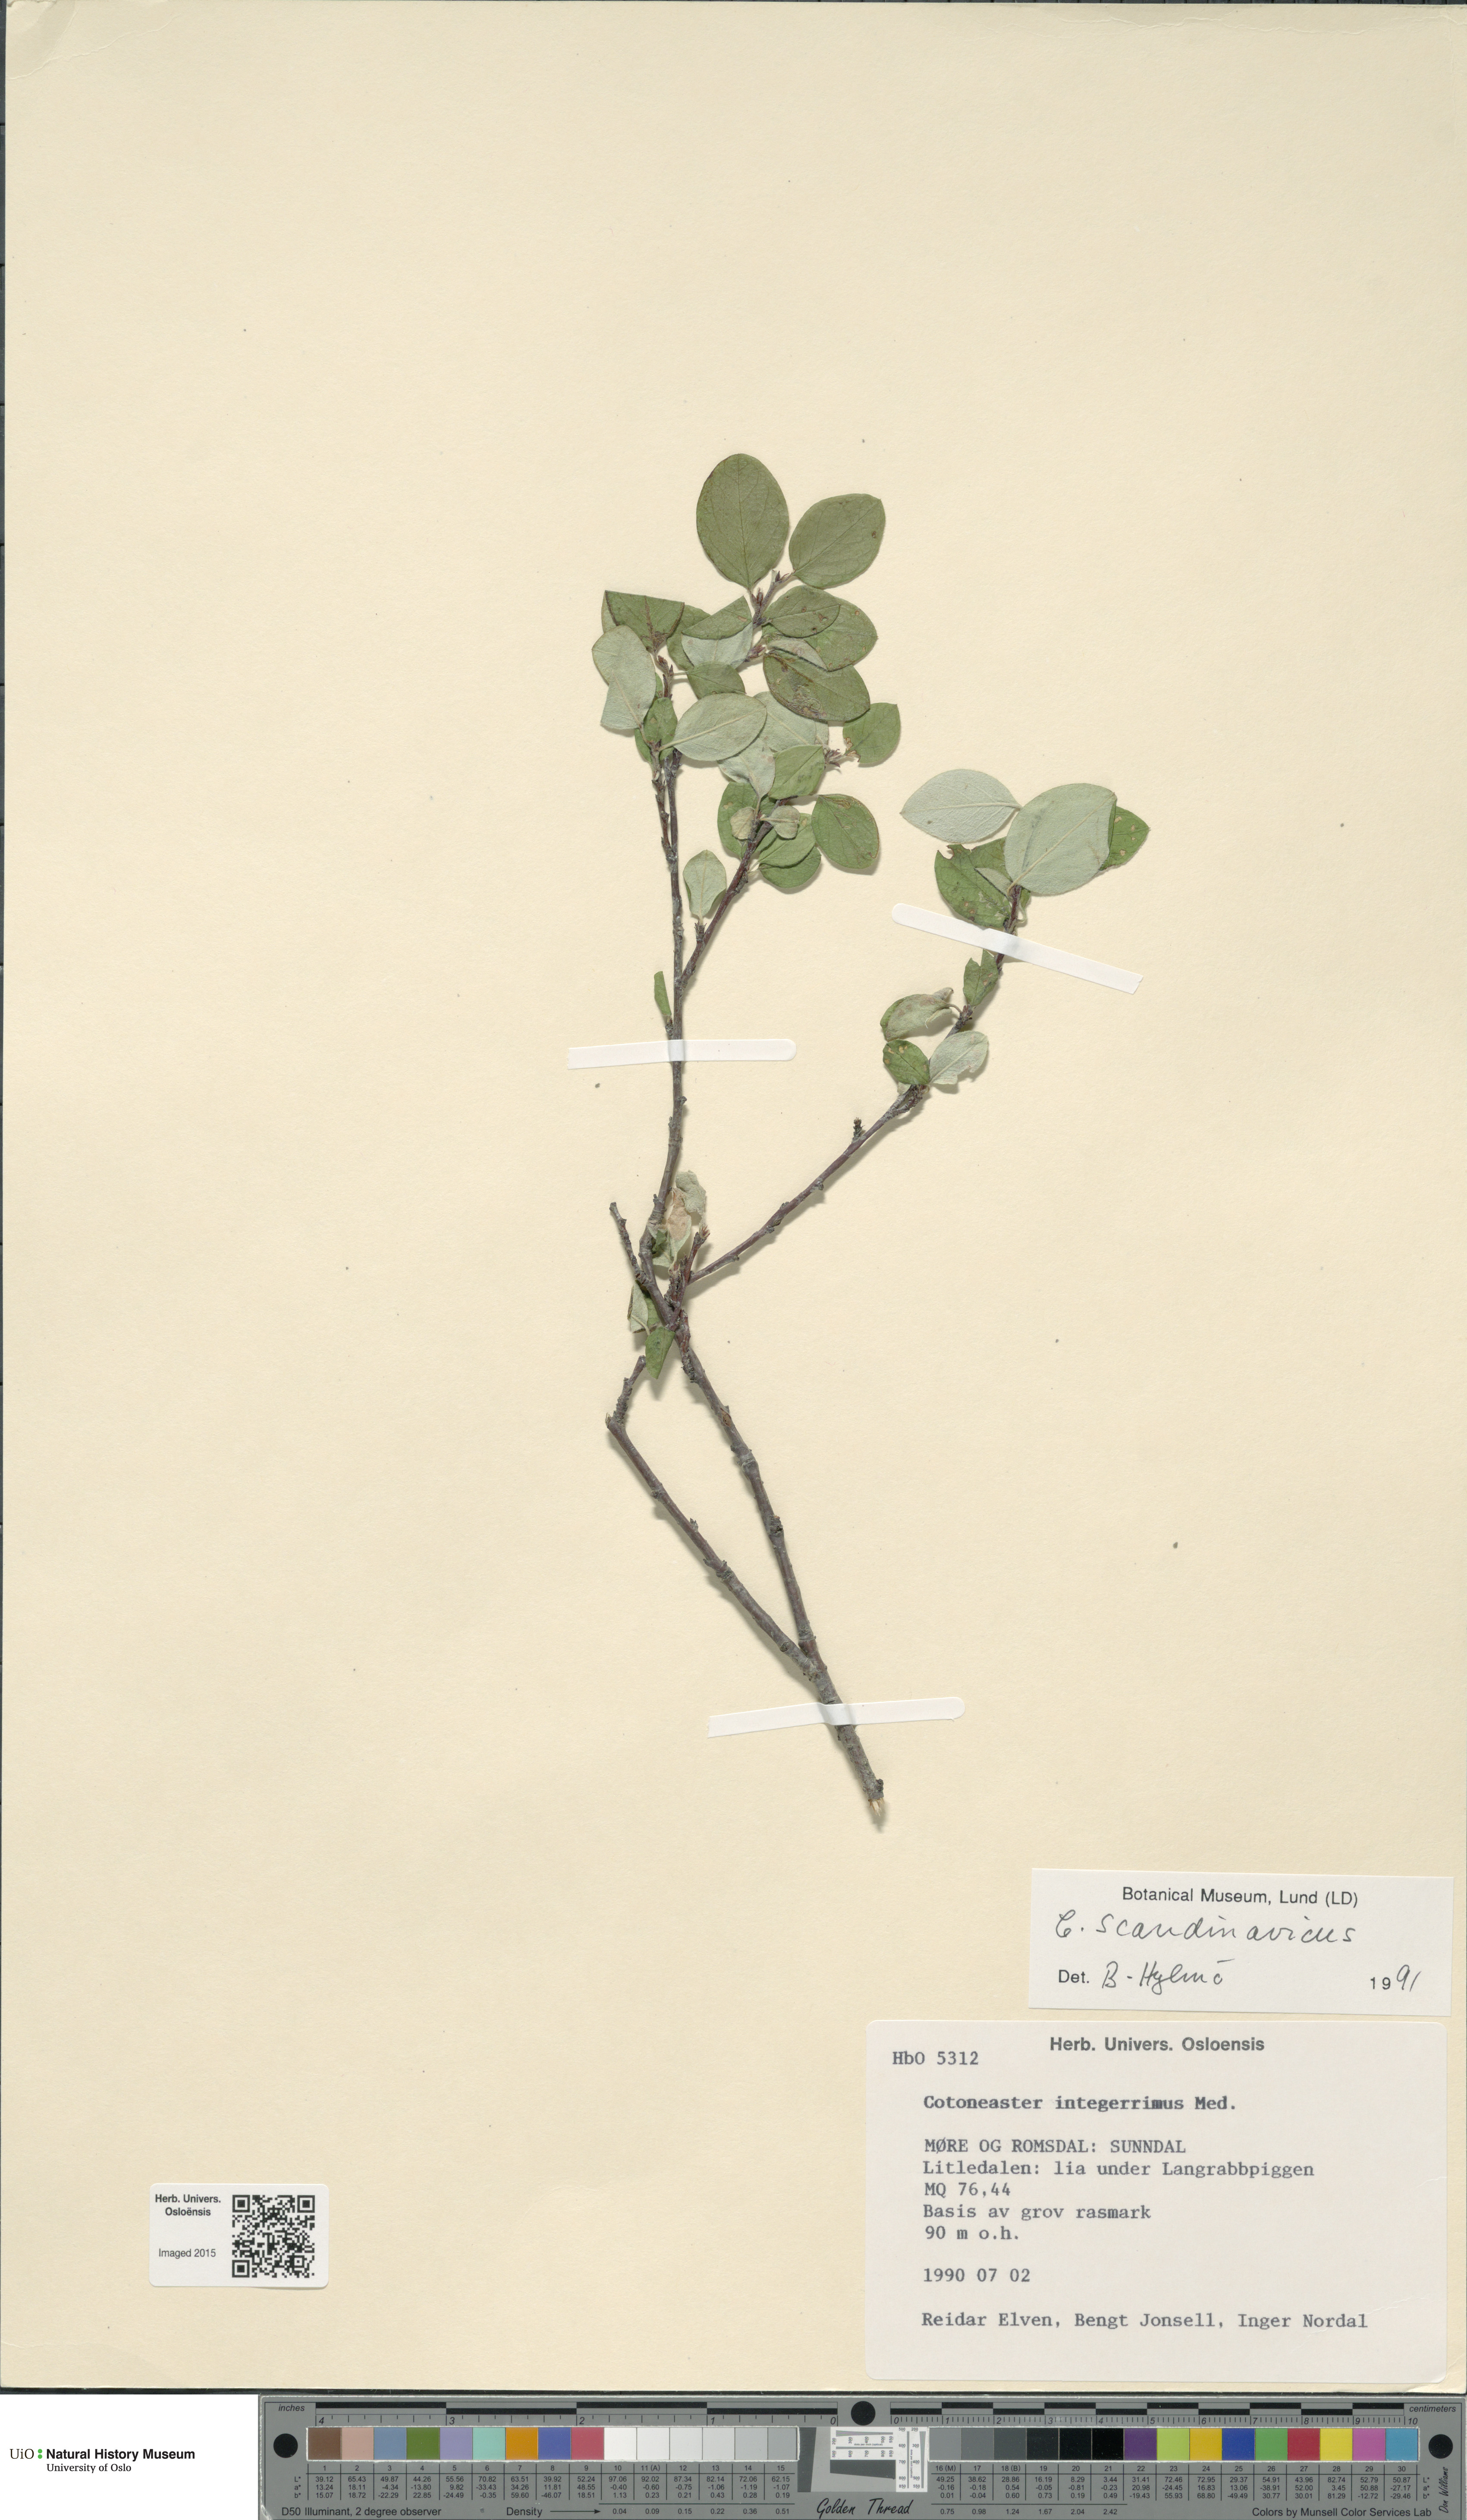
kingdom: Plantae
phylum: Tracheophyta
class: Magnoliopsida
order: Rosales
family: Rosaceae
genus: Cotoneaster
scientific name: Cotoneaster integerrimus
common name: Wild cotoneaster
